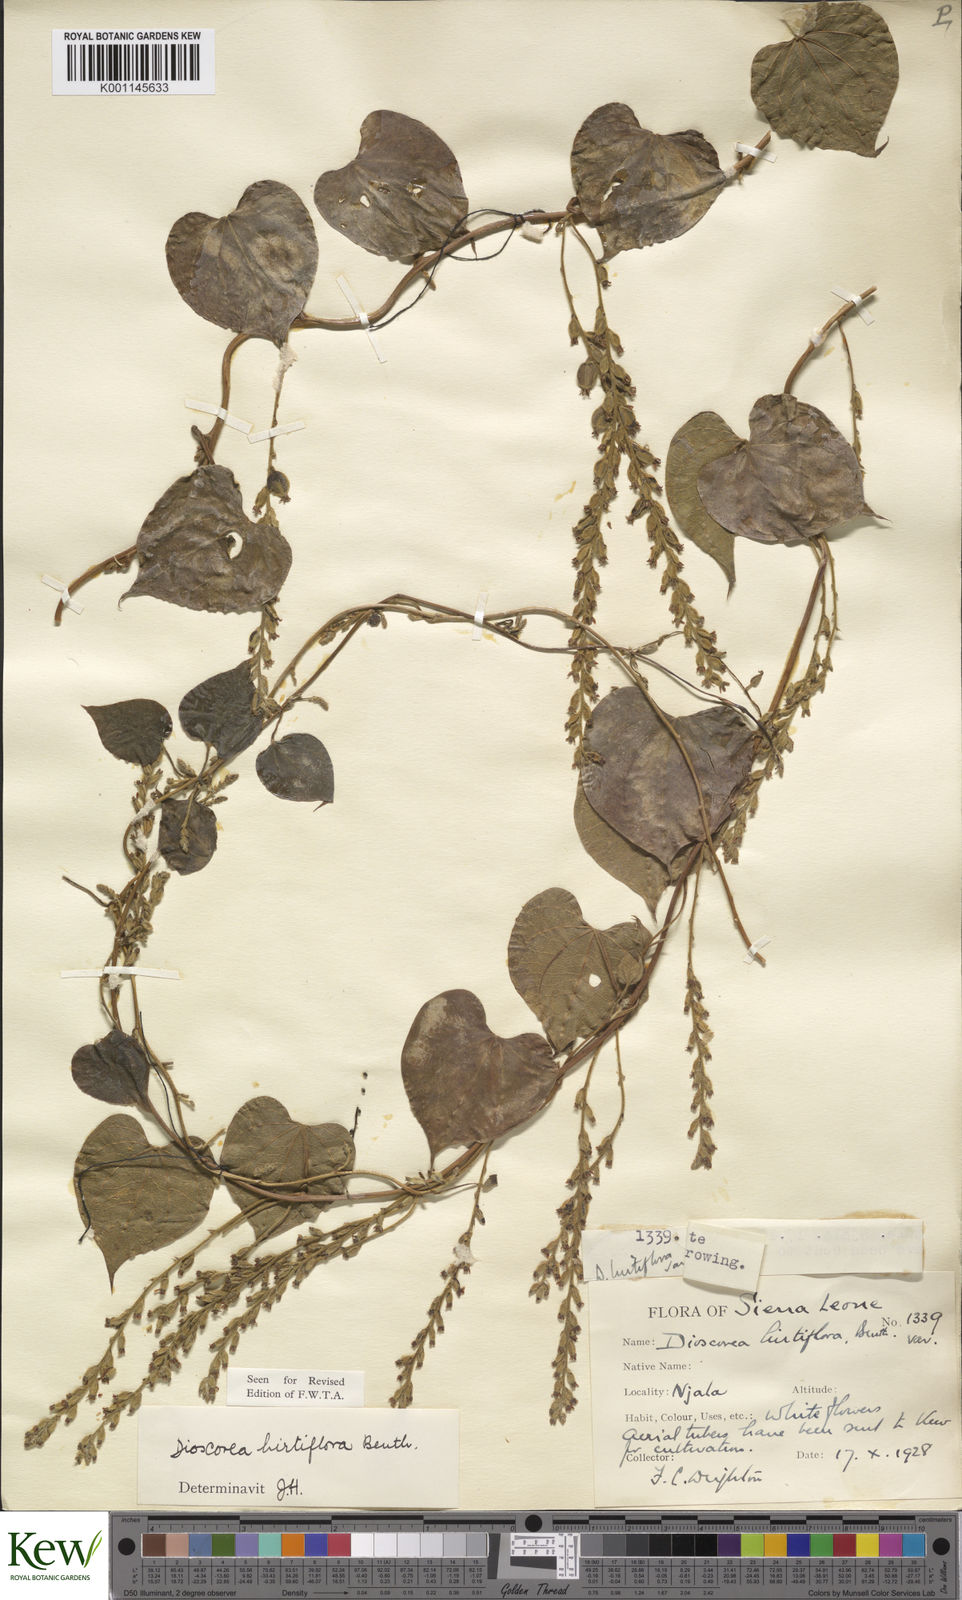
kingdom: Plantae
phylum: Tracheophyta
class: Liliopsida
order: Dioscoreales
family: Dioscoreaceae
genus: Dioscorea
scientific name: Dioscorea hirtiflora
